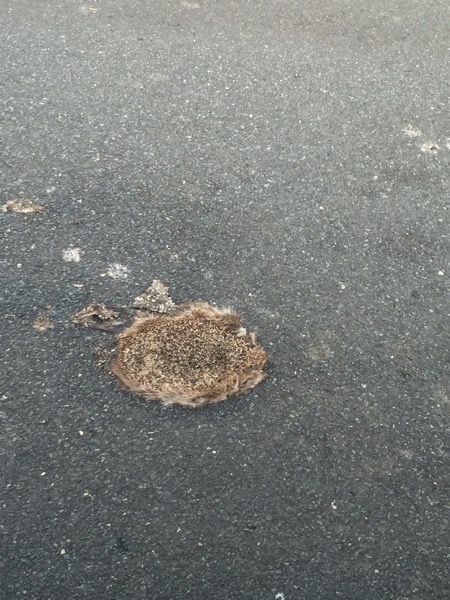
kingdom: Animalia
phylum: Chordata
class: Mammalia
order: Erinaceomorpha
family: Erinaceidae
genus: Erinaceus
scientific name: Erinaceus
